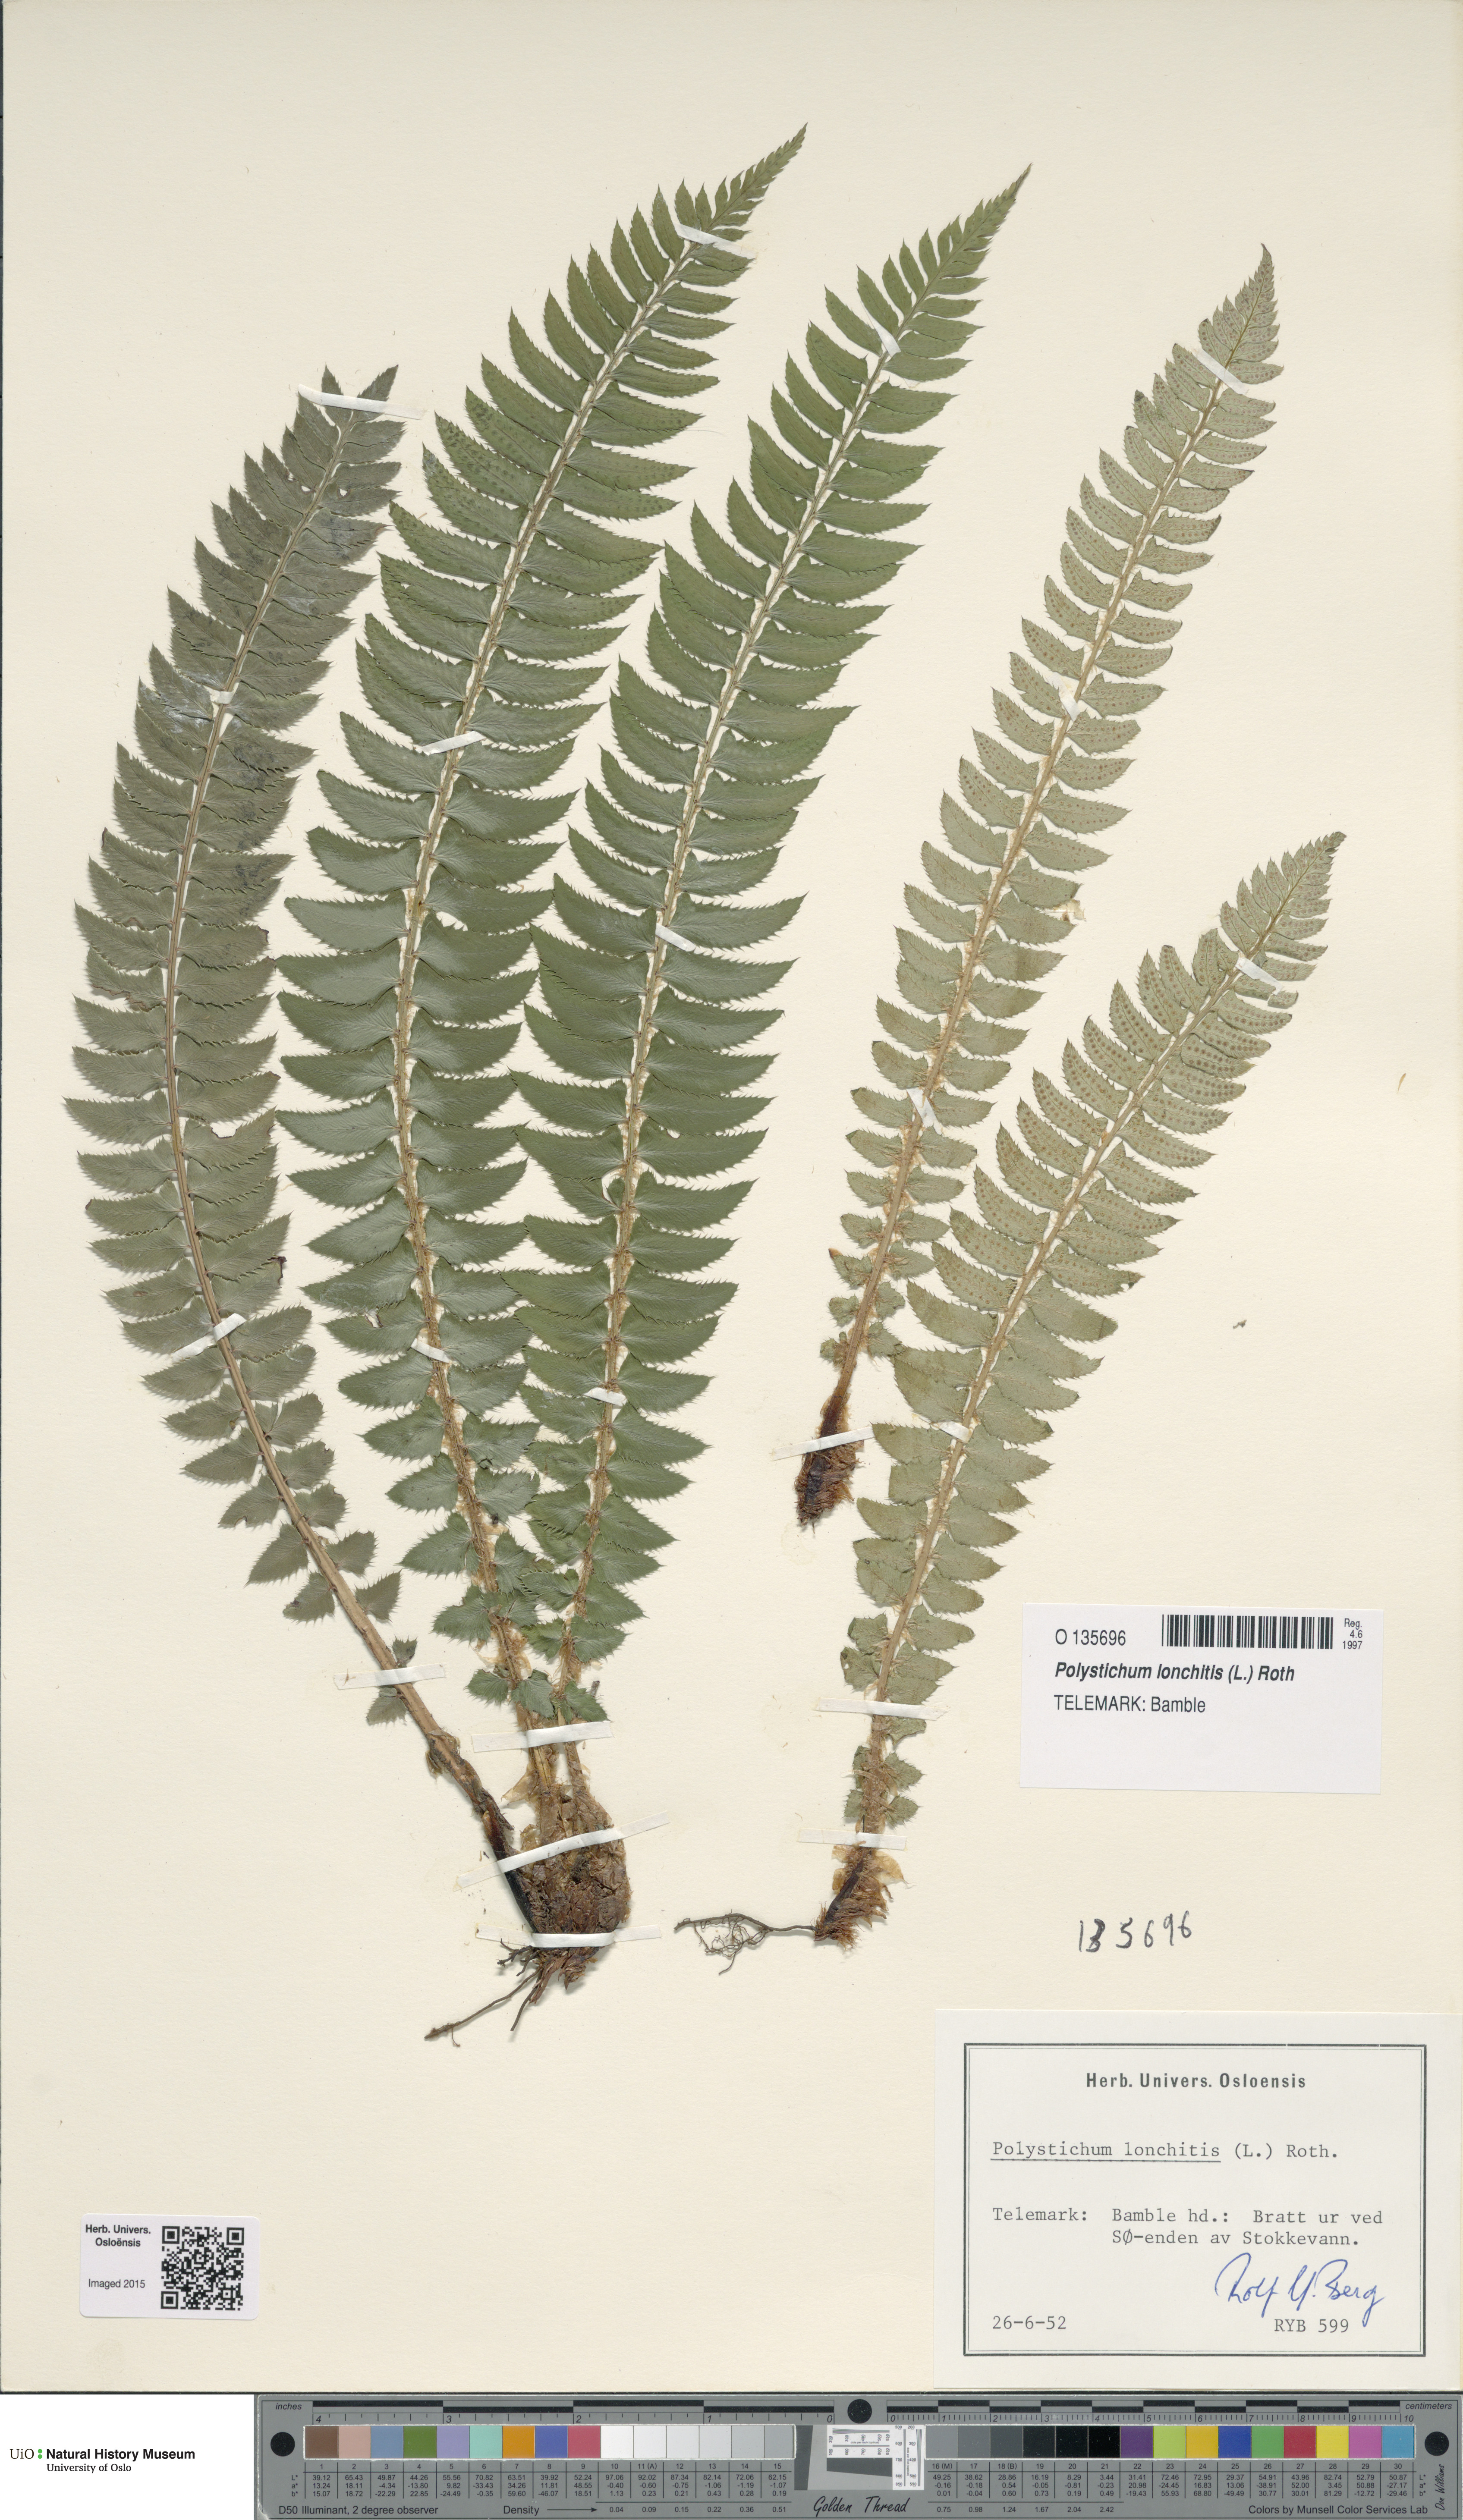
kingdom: Plantae
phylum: Tracheophyta
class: Polypodiopsida
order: Polypodiales
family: Dryopteridaceae
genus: Polystichum
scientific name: Polystichum lonchitis
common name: Holly fern
